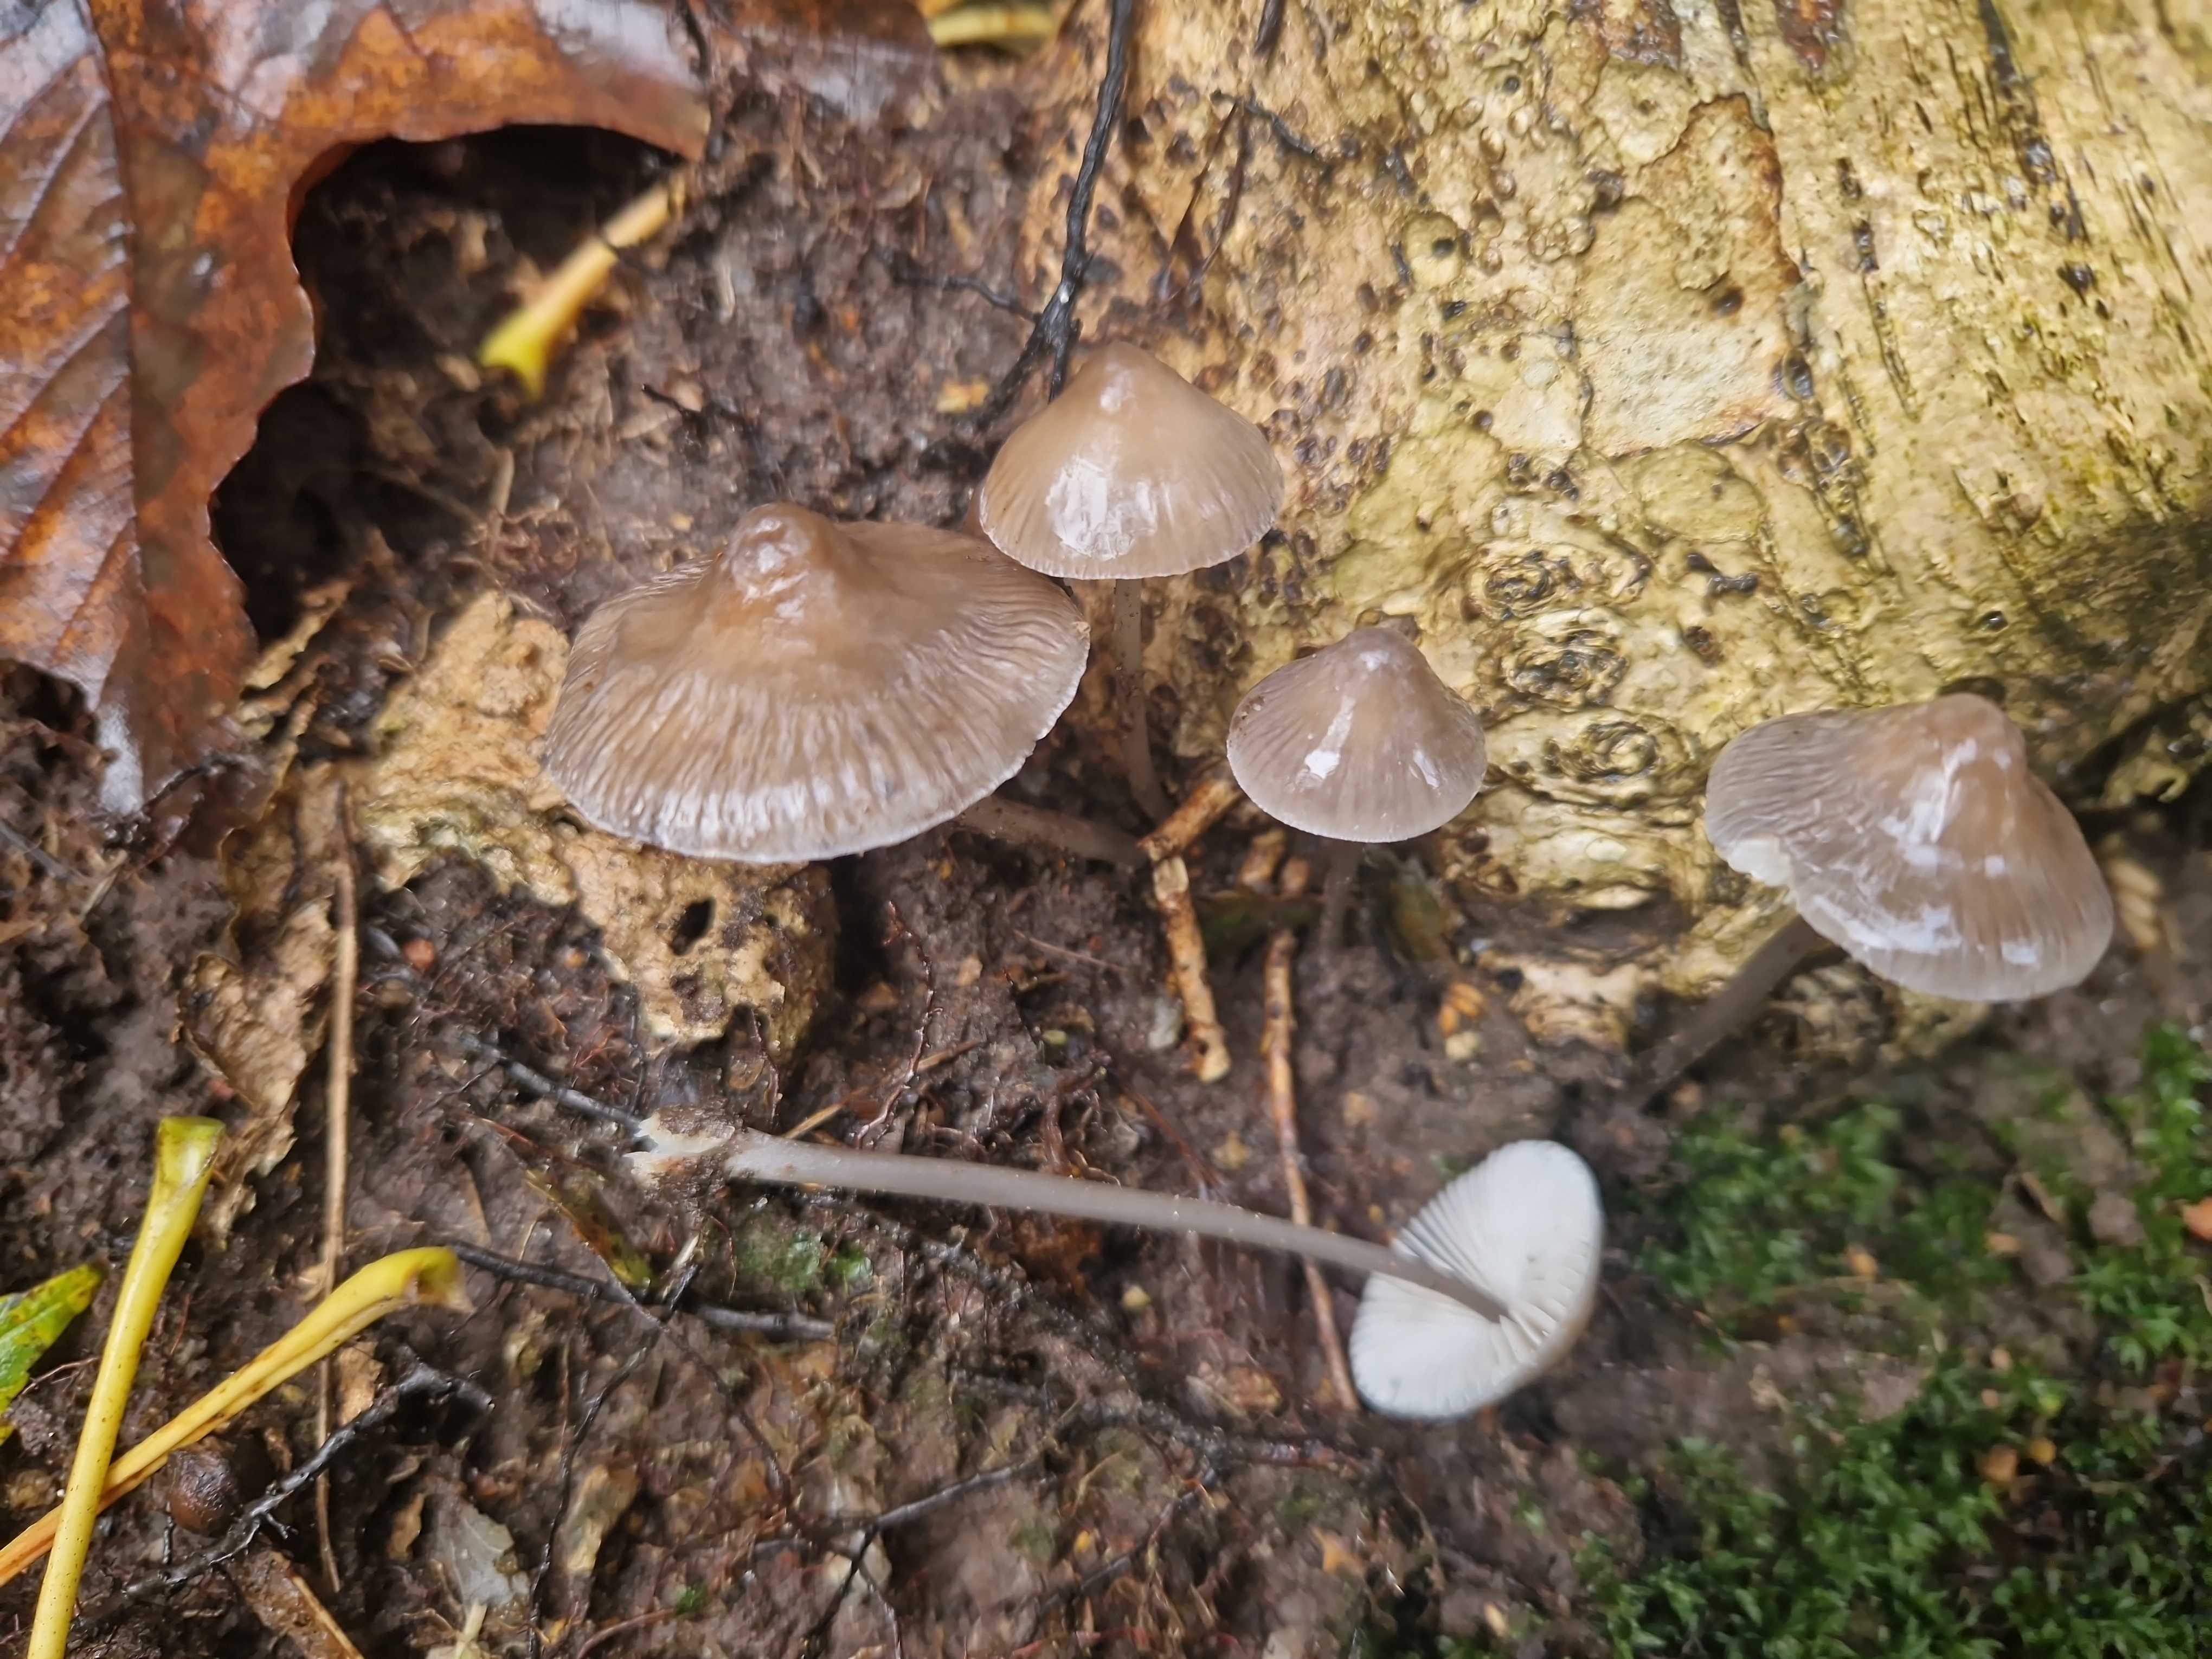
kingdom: Fungi
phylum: Basidiomycota
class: Agaricomycetes
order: Agaricales
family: Mycenaceae
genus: Mycena
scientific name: Mycena polygramma
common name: mangestribet huesvamp
